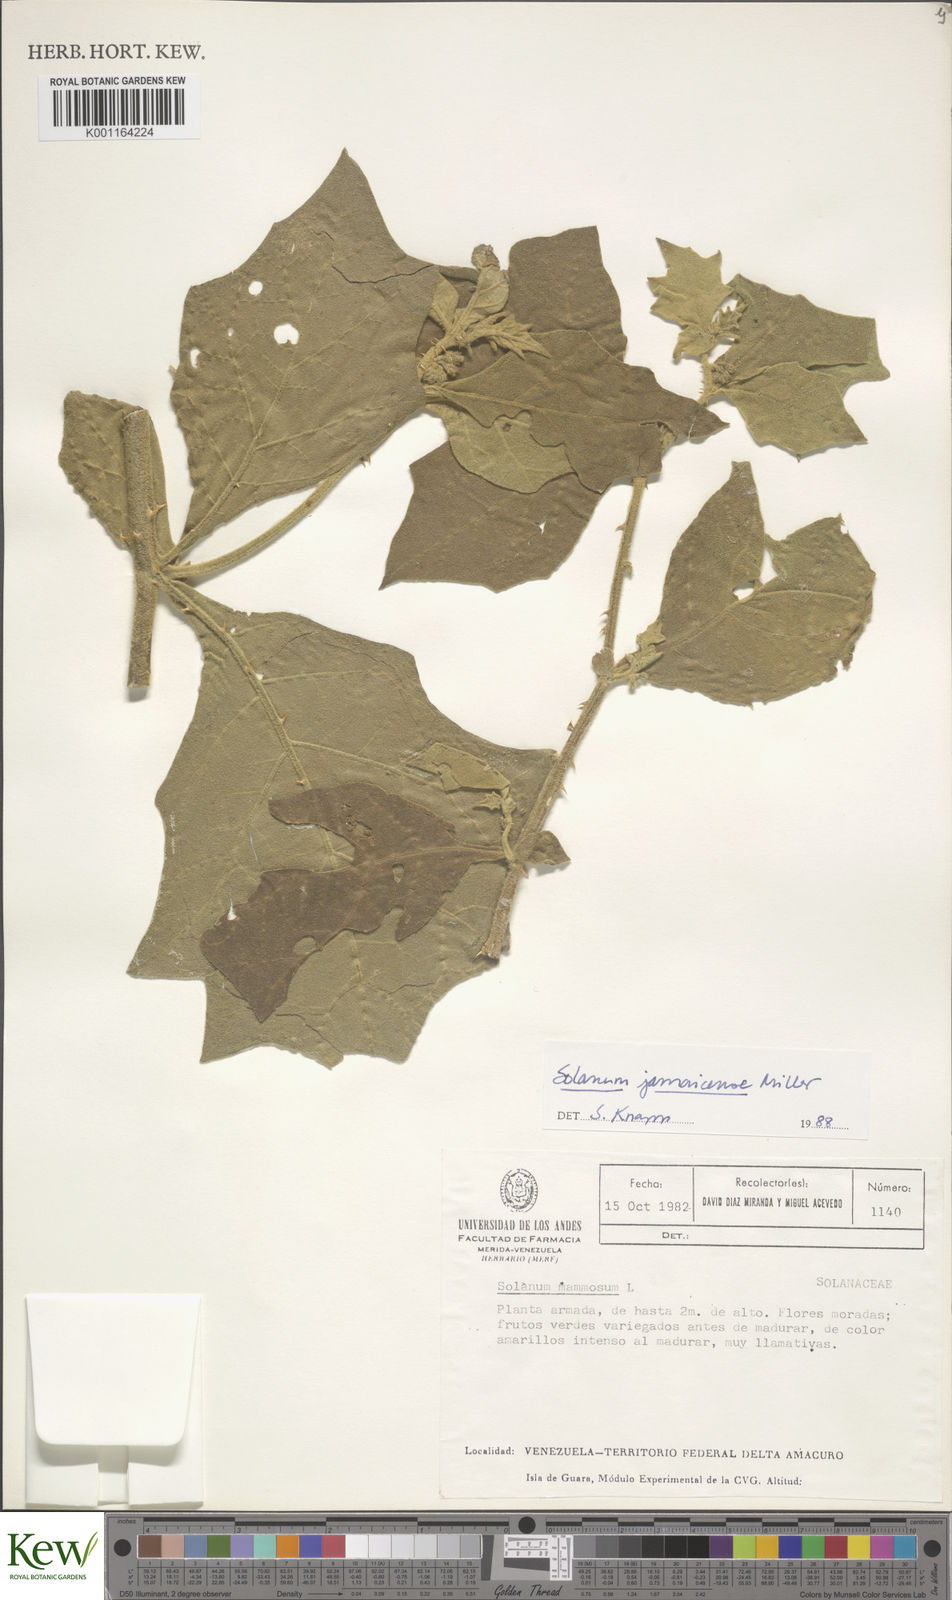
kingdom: Plantae
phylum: Tracheophyta
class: Magnoliopsida
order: Solanales
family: Solanaceae
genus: Solanum
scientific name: Solanum jamaicense
